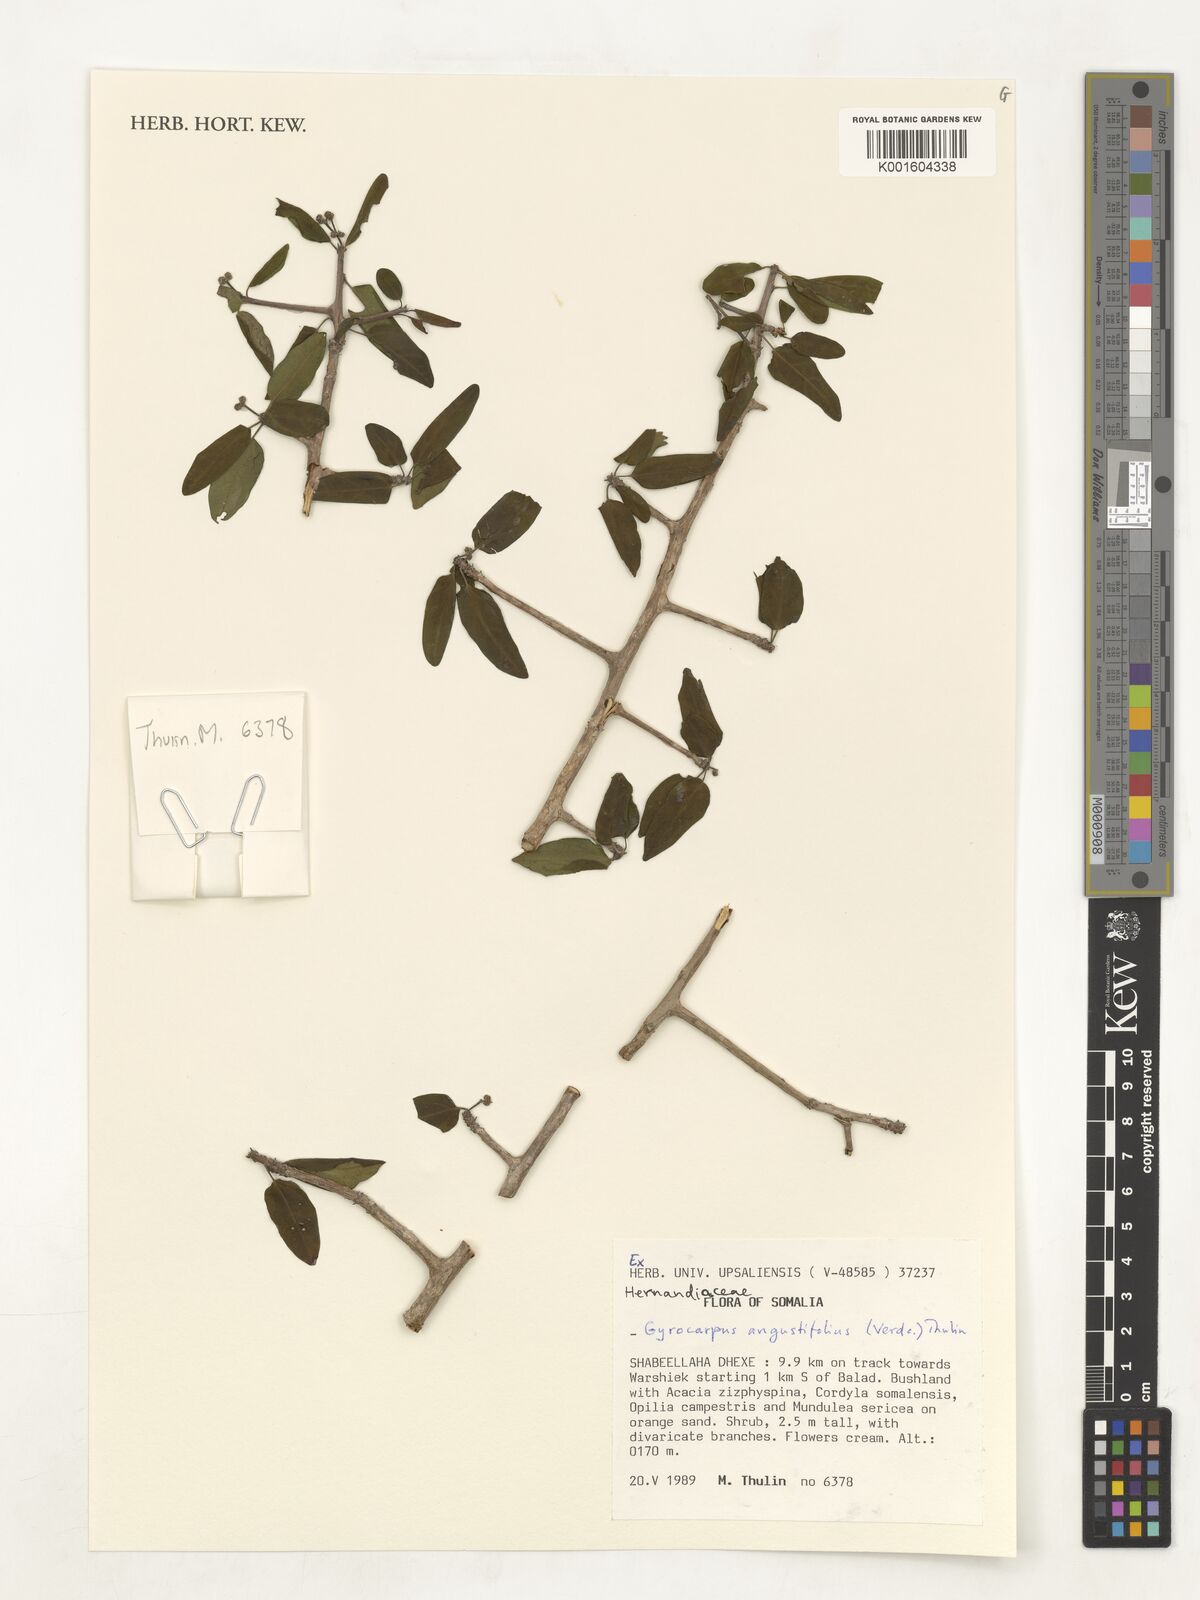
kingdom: Plantae
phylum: Tracheophyta
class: Magnoliopsida
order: Laurales
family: Hernandiaceae
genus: Gyrocarpus
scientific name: Gyrocarpus angustifolius
